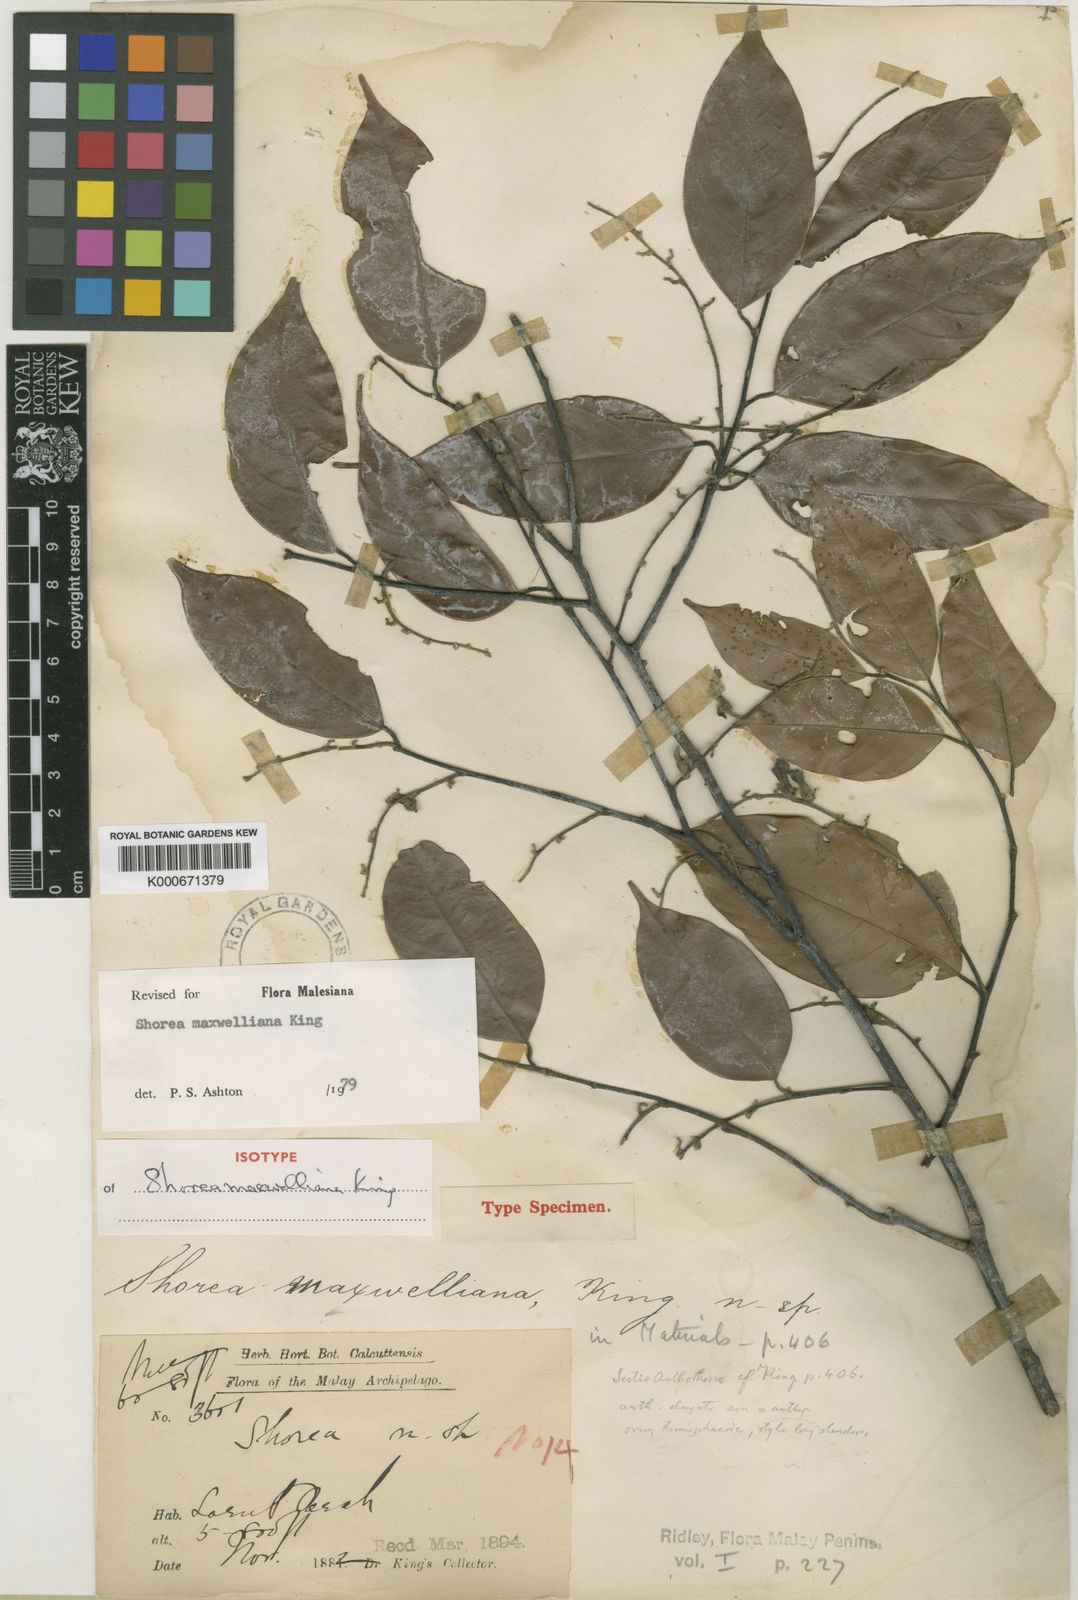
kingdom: Plantae
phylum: Tracheophyta
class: Magnoliopsida
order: Malvales
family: Dipterocarpaceae
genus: Shorea
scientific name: Shorea maxwelliana
